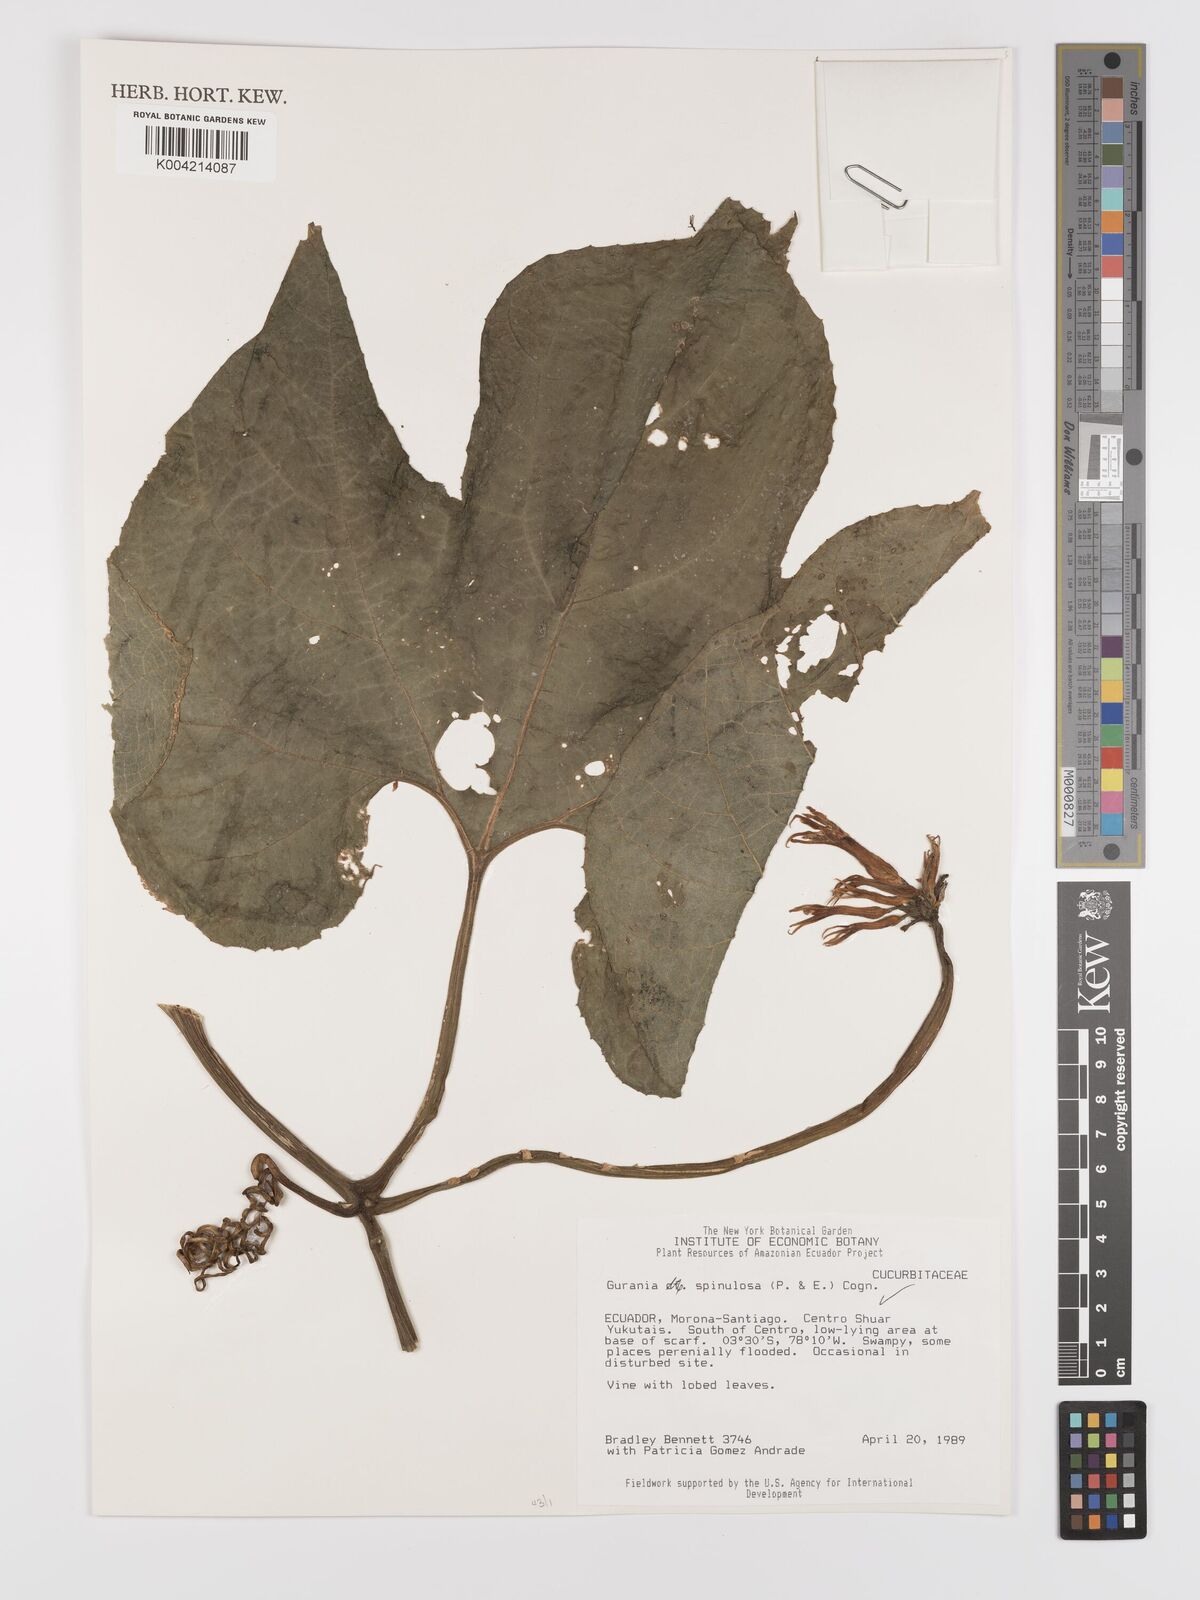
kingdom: Plantae
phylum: Tracheophyta
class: Magnoliopsida
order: Cucurbitales
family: Cucurbitaceae
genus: Gurania
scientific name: Gurania lobata
